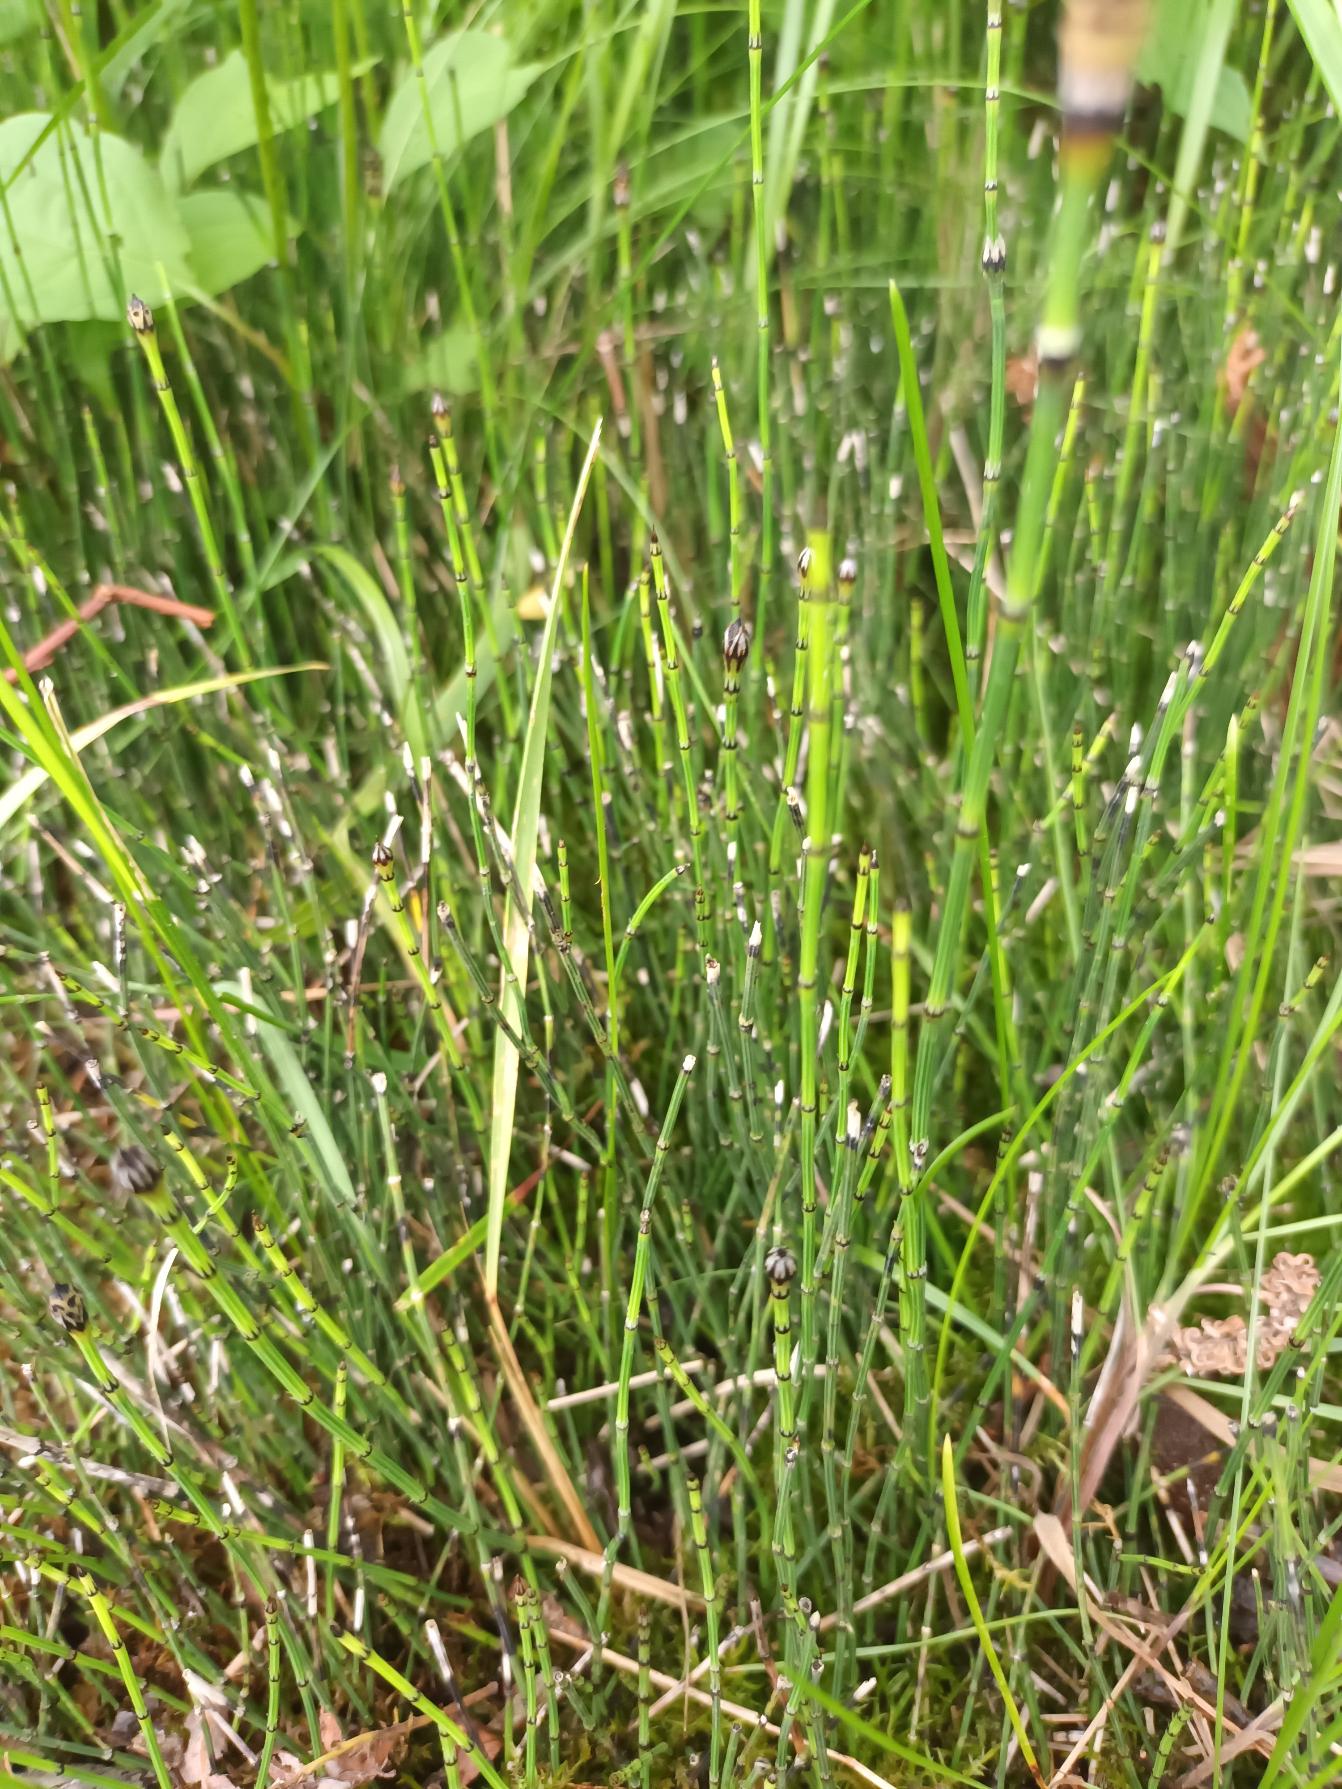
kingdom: Plantae
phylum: Tracheophyta
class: Polypodiopsida
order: Equisetales
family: Equisetaceae
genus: Equisetum
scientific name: Equisetum variegatum
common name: Liden padderok
